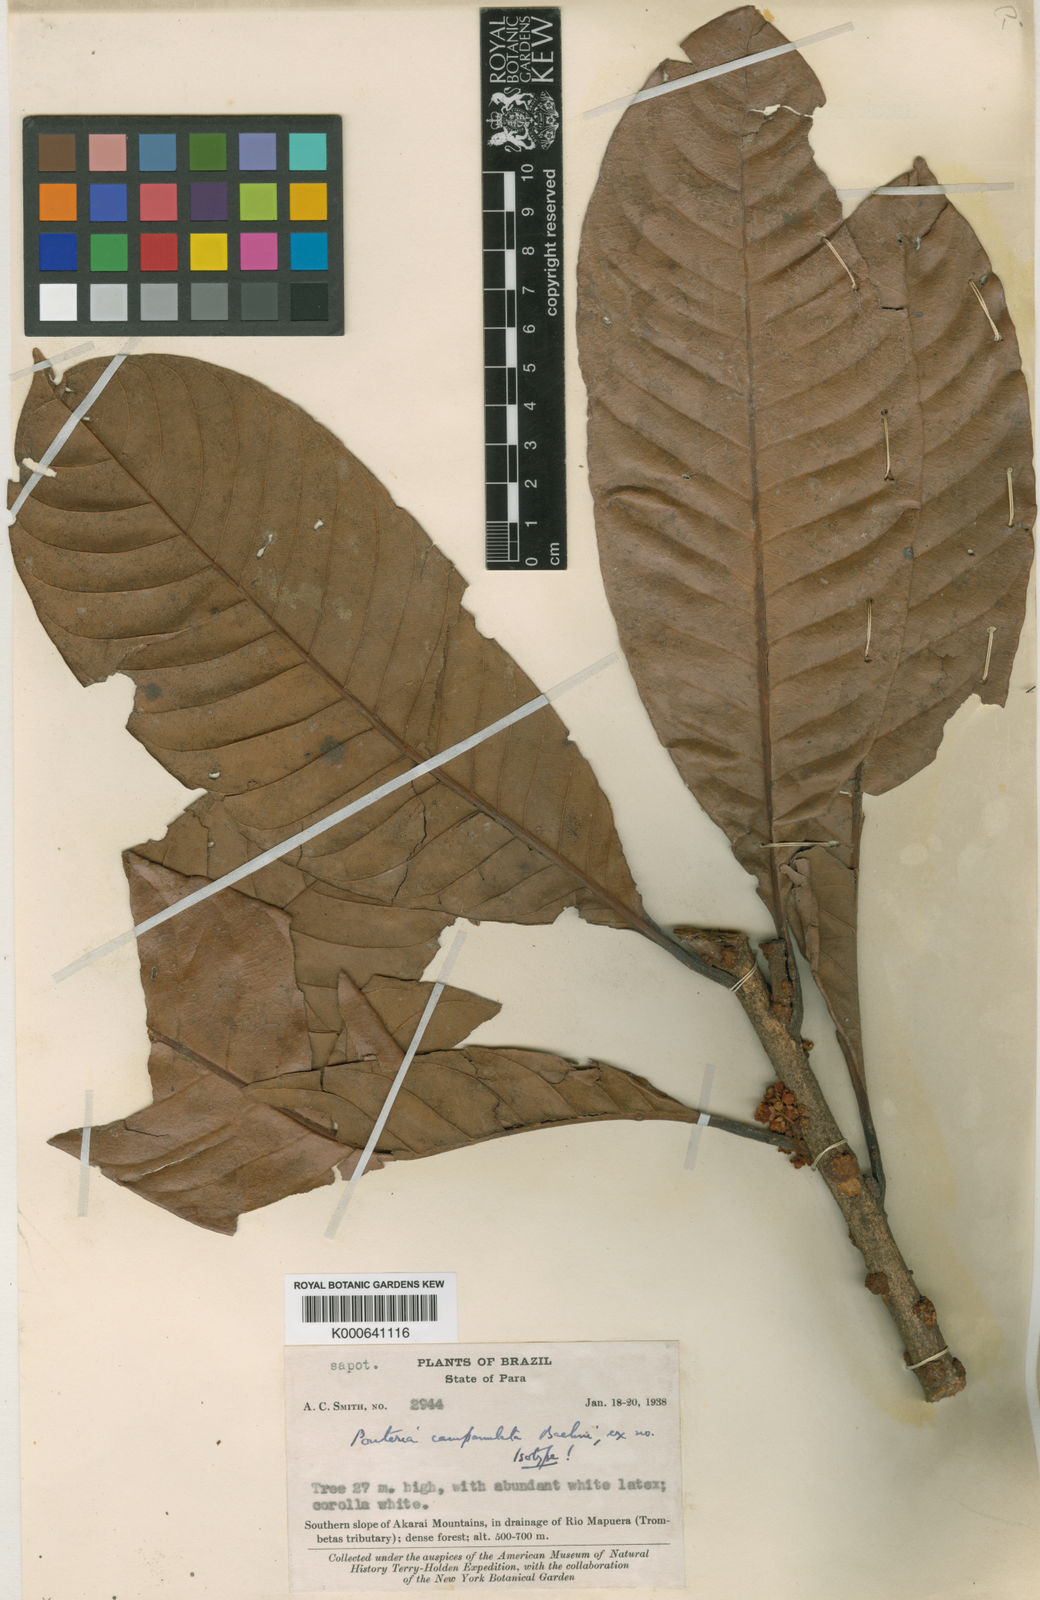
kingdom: Plantae
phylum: Tracheophyta
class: Magnoliopsida
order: Ericales
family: Sapotaceae
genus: Pouteria
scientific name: Pouteria campanulata
